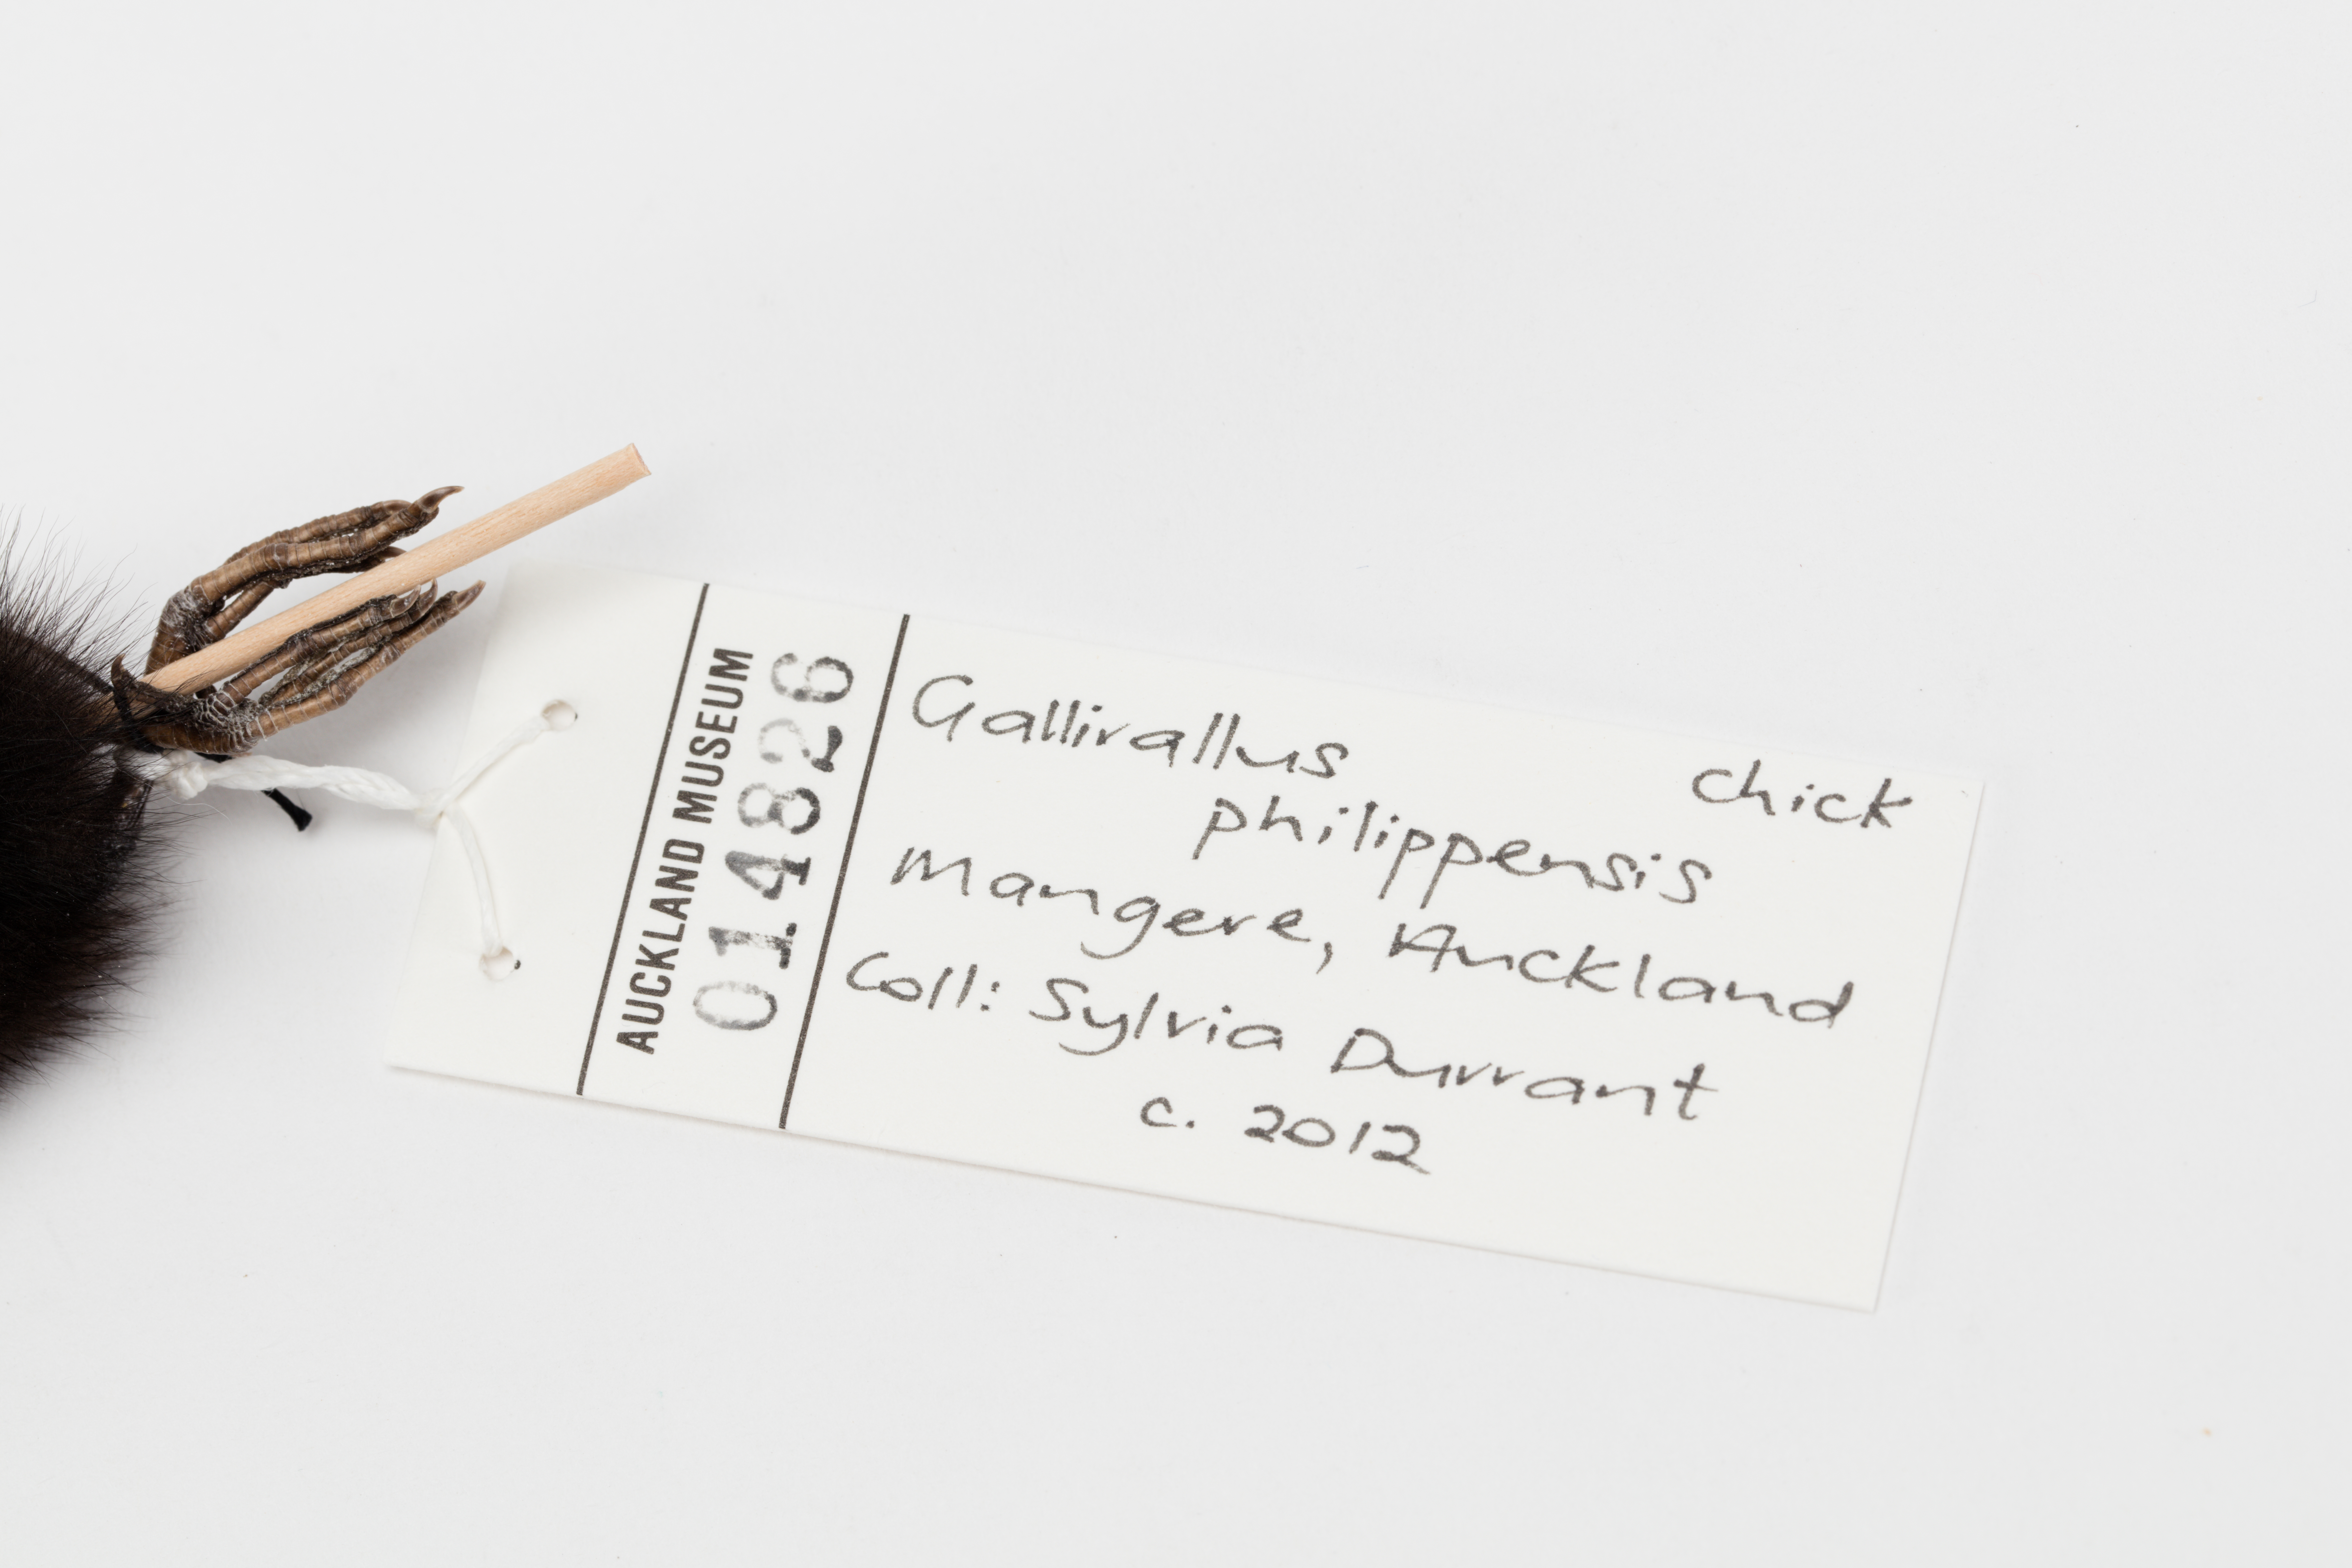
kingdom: Animalia
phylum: Chordata
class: Aves
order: Gruiformes
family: Rallidae
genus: Gallirallus
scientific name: Gallirallus philippensis
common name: Buff-banded rail
